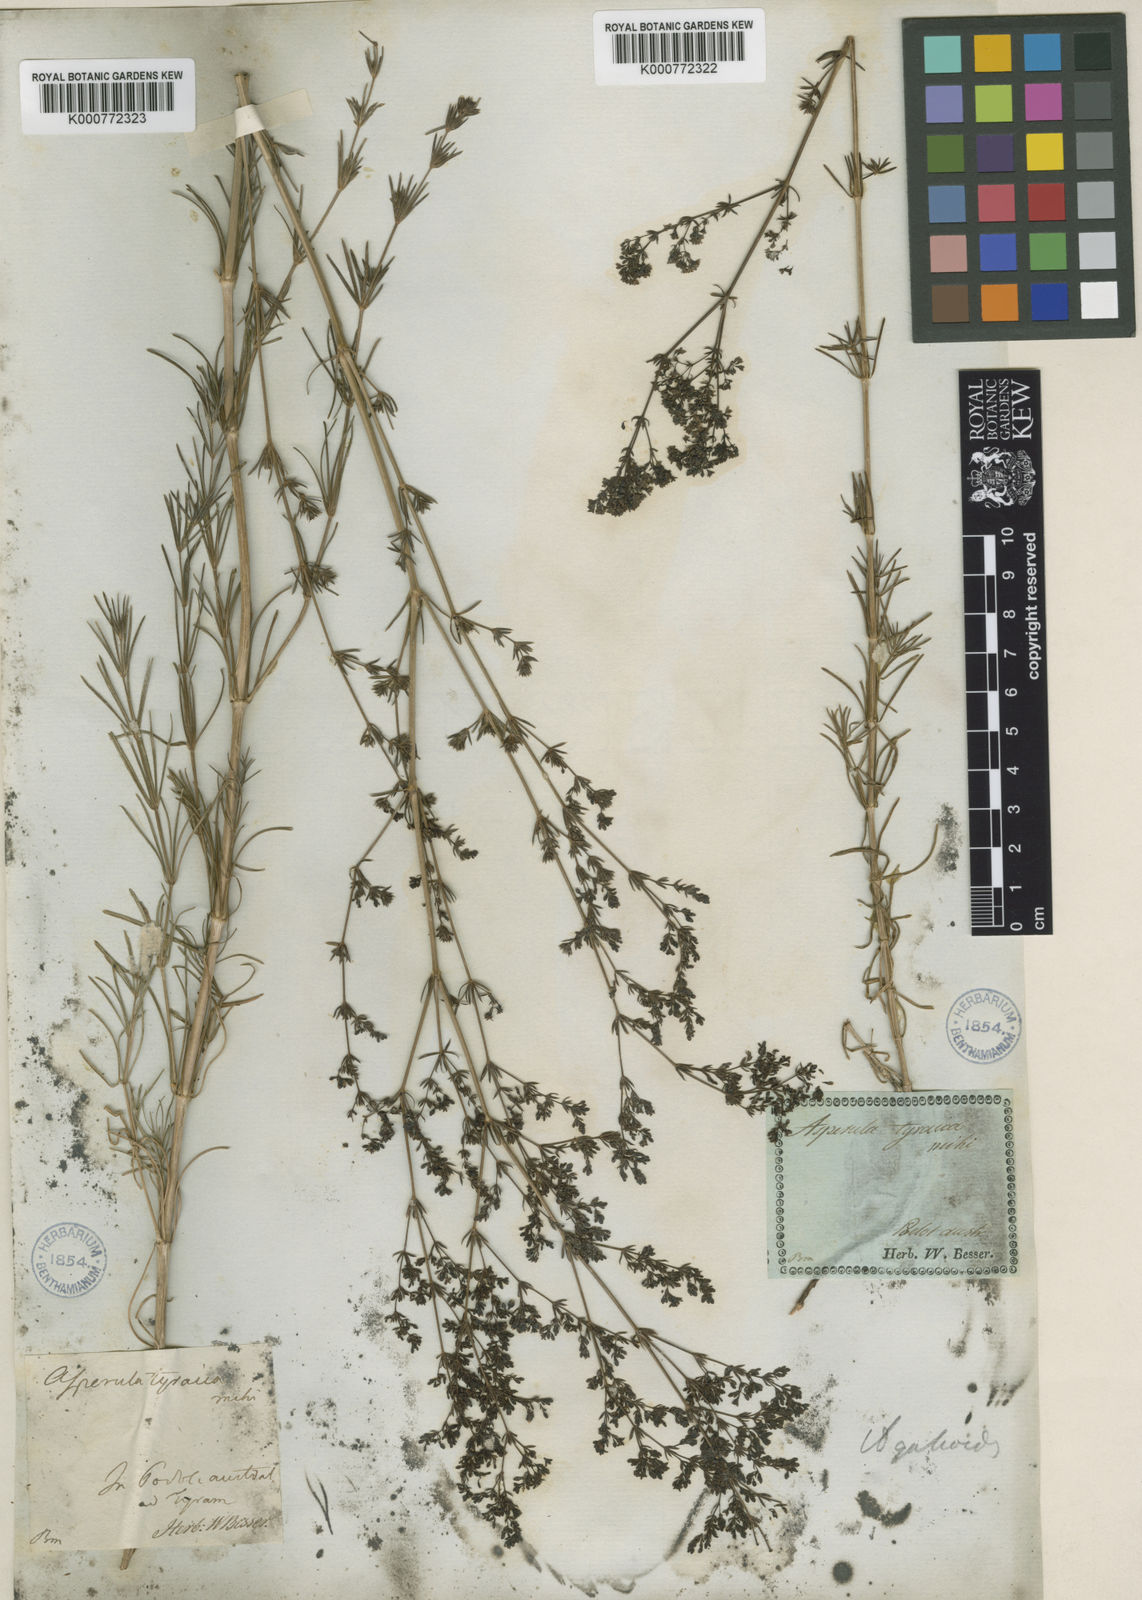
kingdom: Plantae
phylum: Tracheophyta
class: Magnoliopsida
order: Gentianales
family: Rubiaceae
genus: Galium
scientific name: Galium volhynicum
